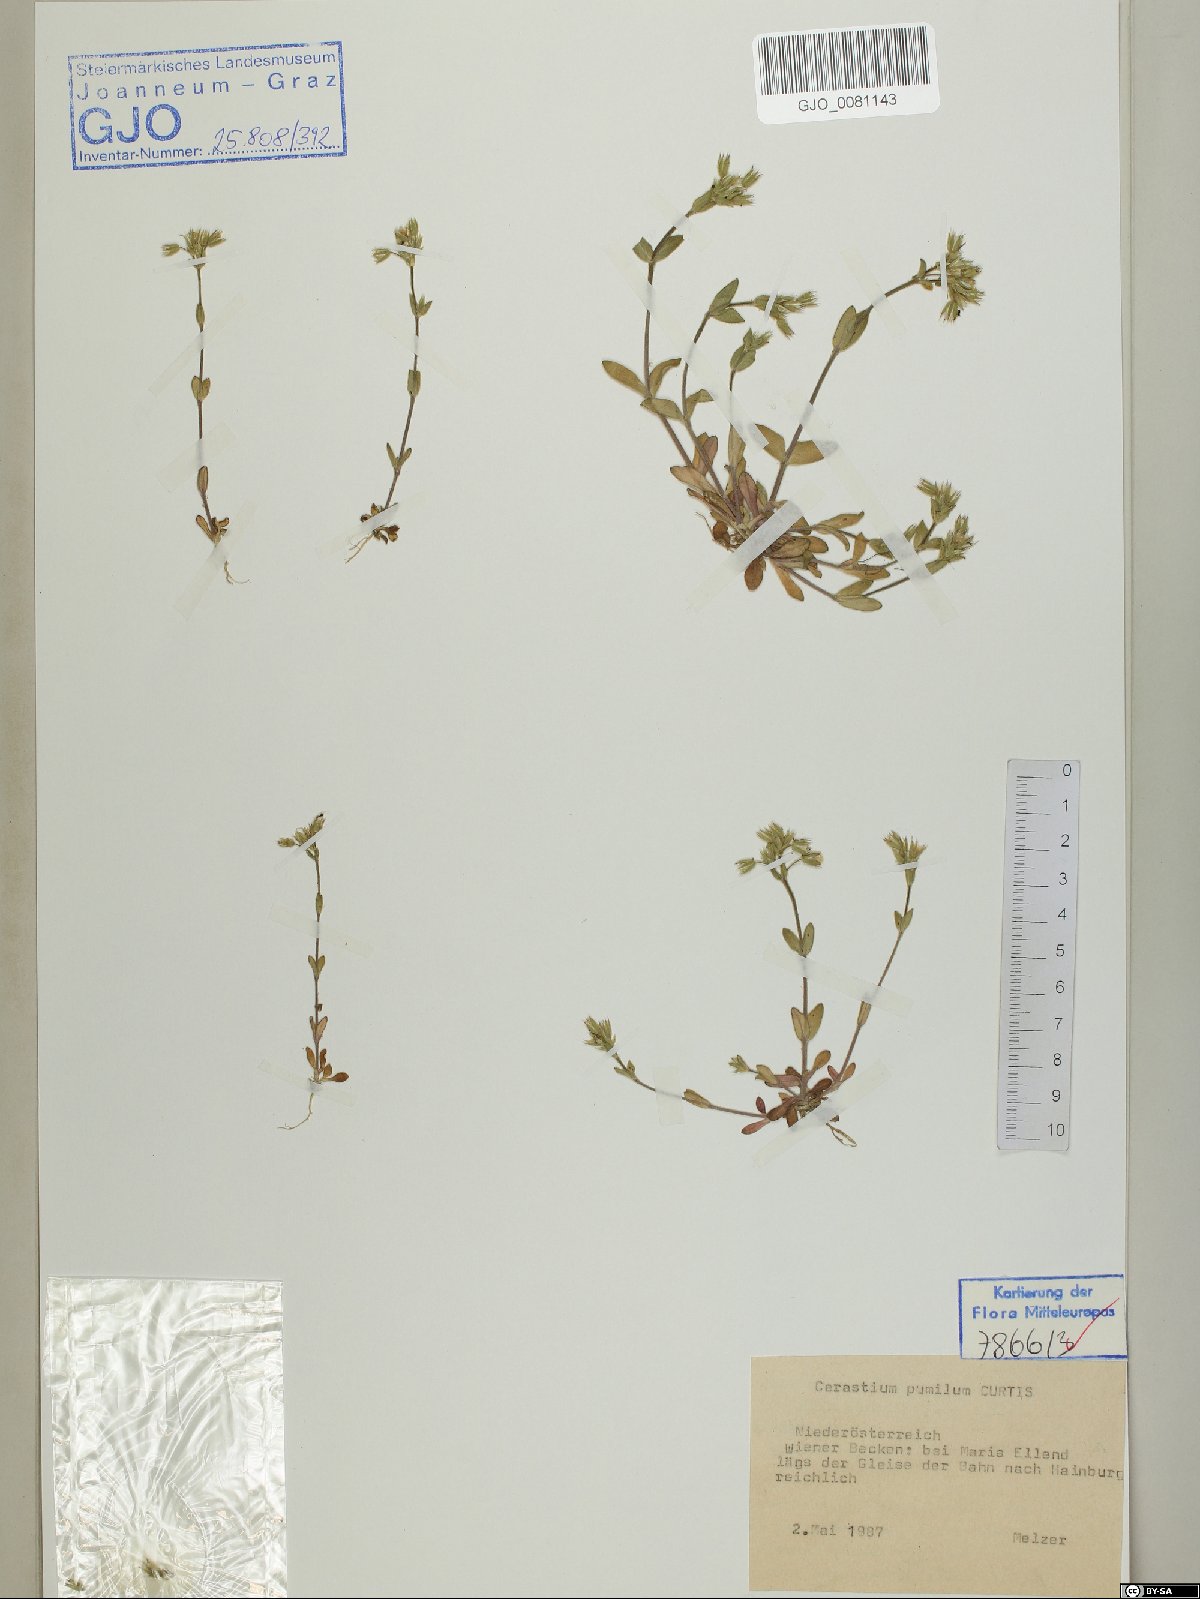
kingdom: Plantae
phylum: Tracheophyta
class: Magnoliopsida
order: Caryophyllales
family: Caryophyllaceae
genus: Cerastium
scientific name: Cerastium pumilum
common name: Dwarf mouse-ear
